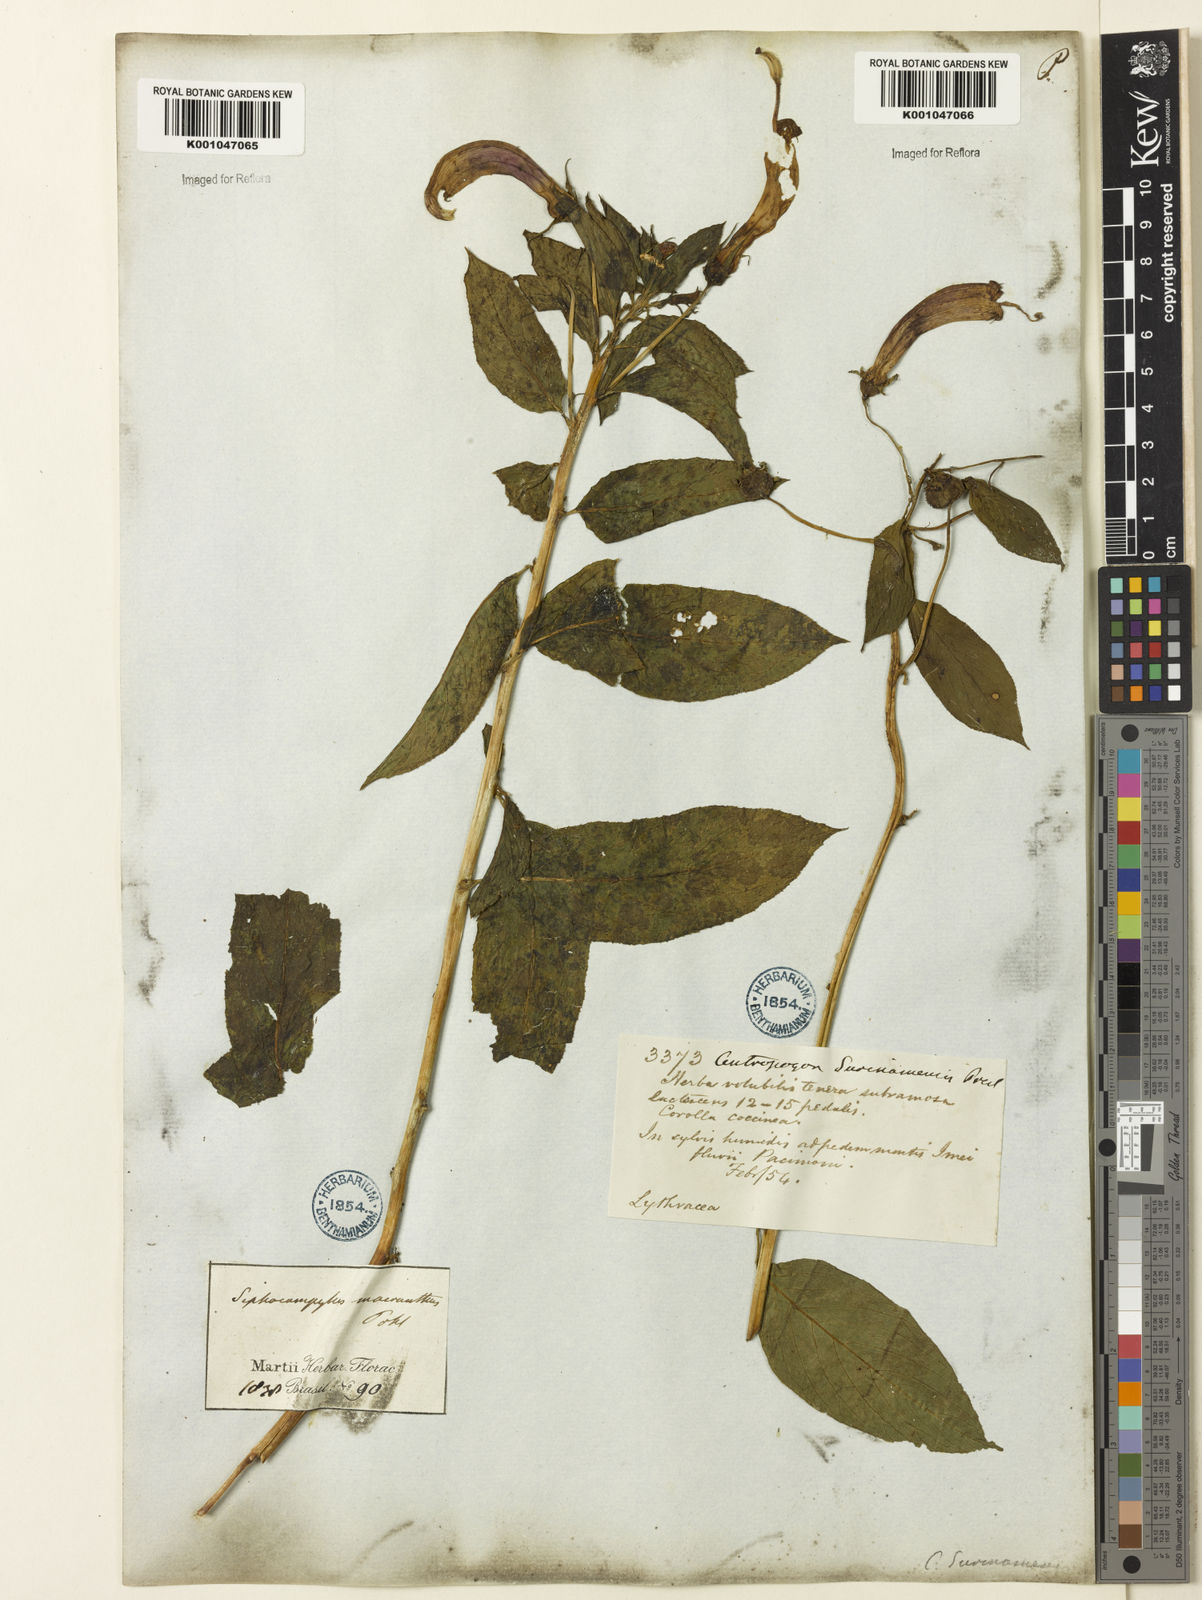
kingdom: Plantae
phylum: Tracheophyta
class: Magnoliopsida
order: Asterales
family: Campanulaceae
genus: Centropogon
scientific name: Centropogon cornutus
